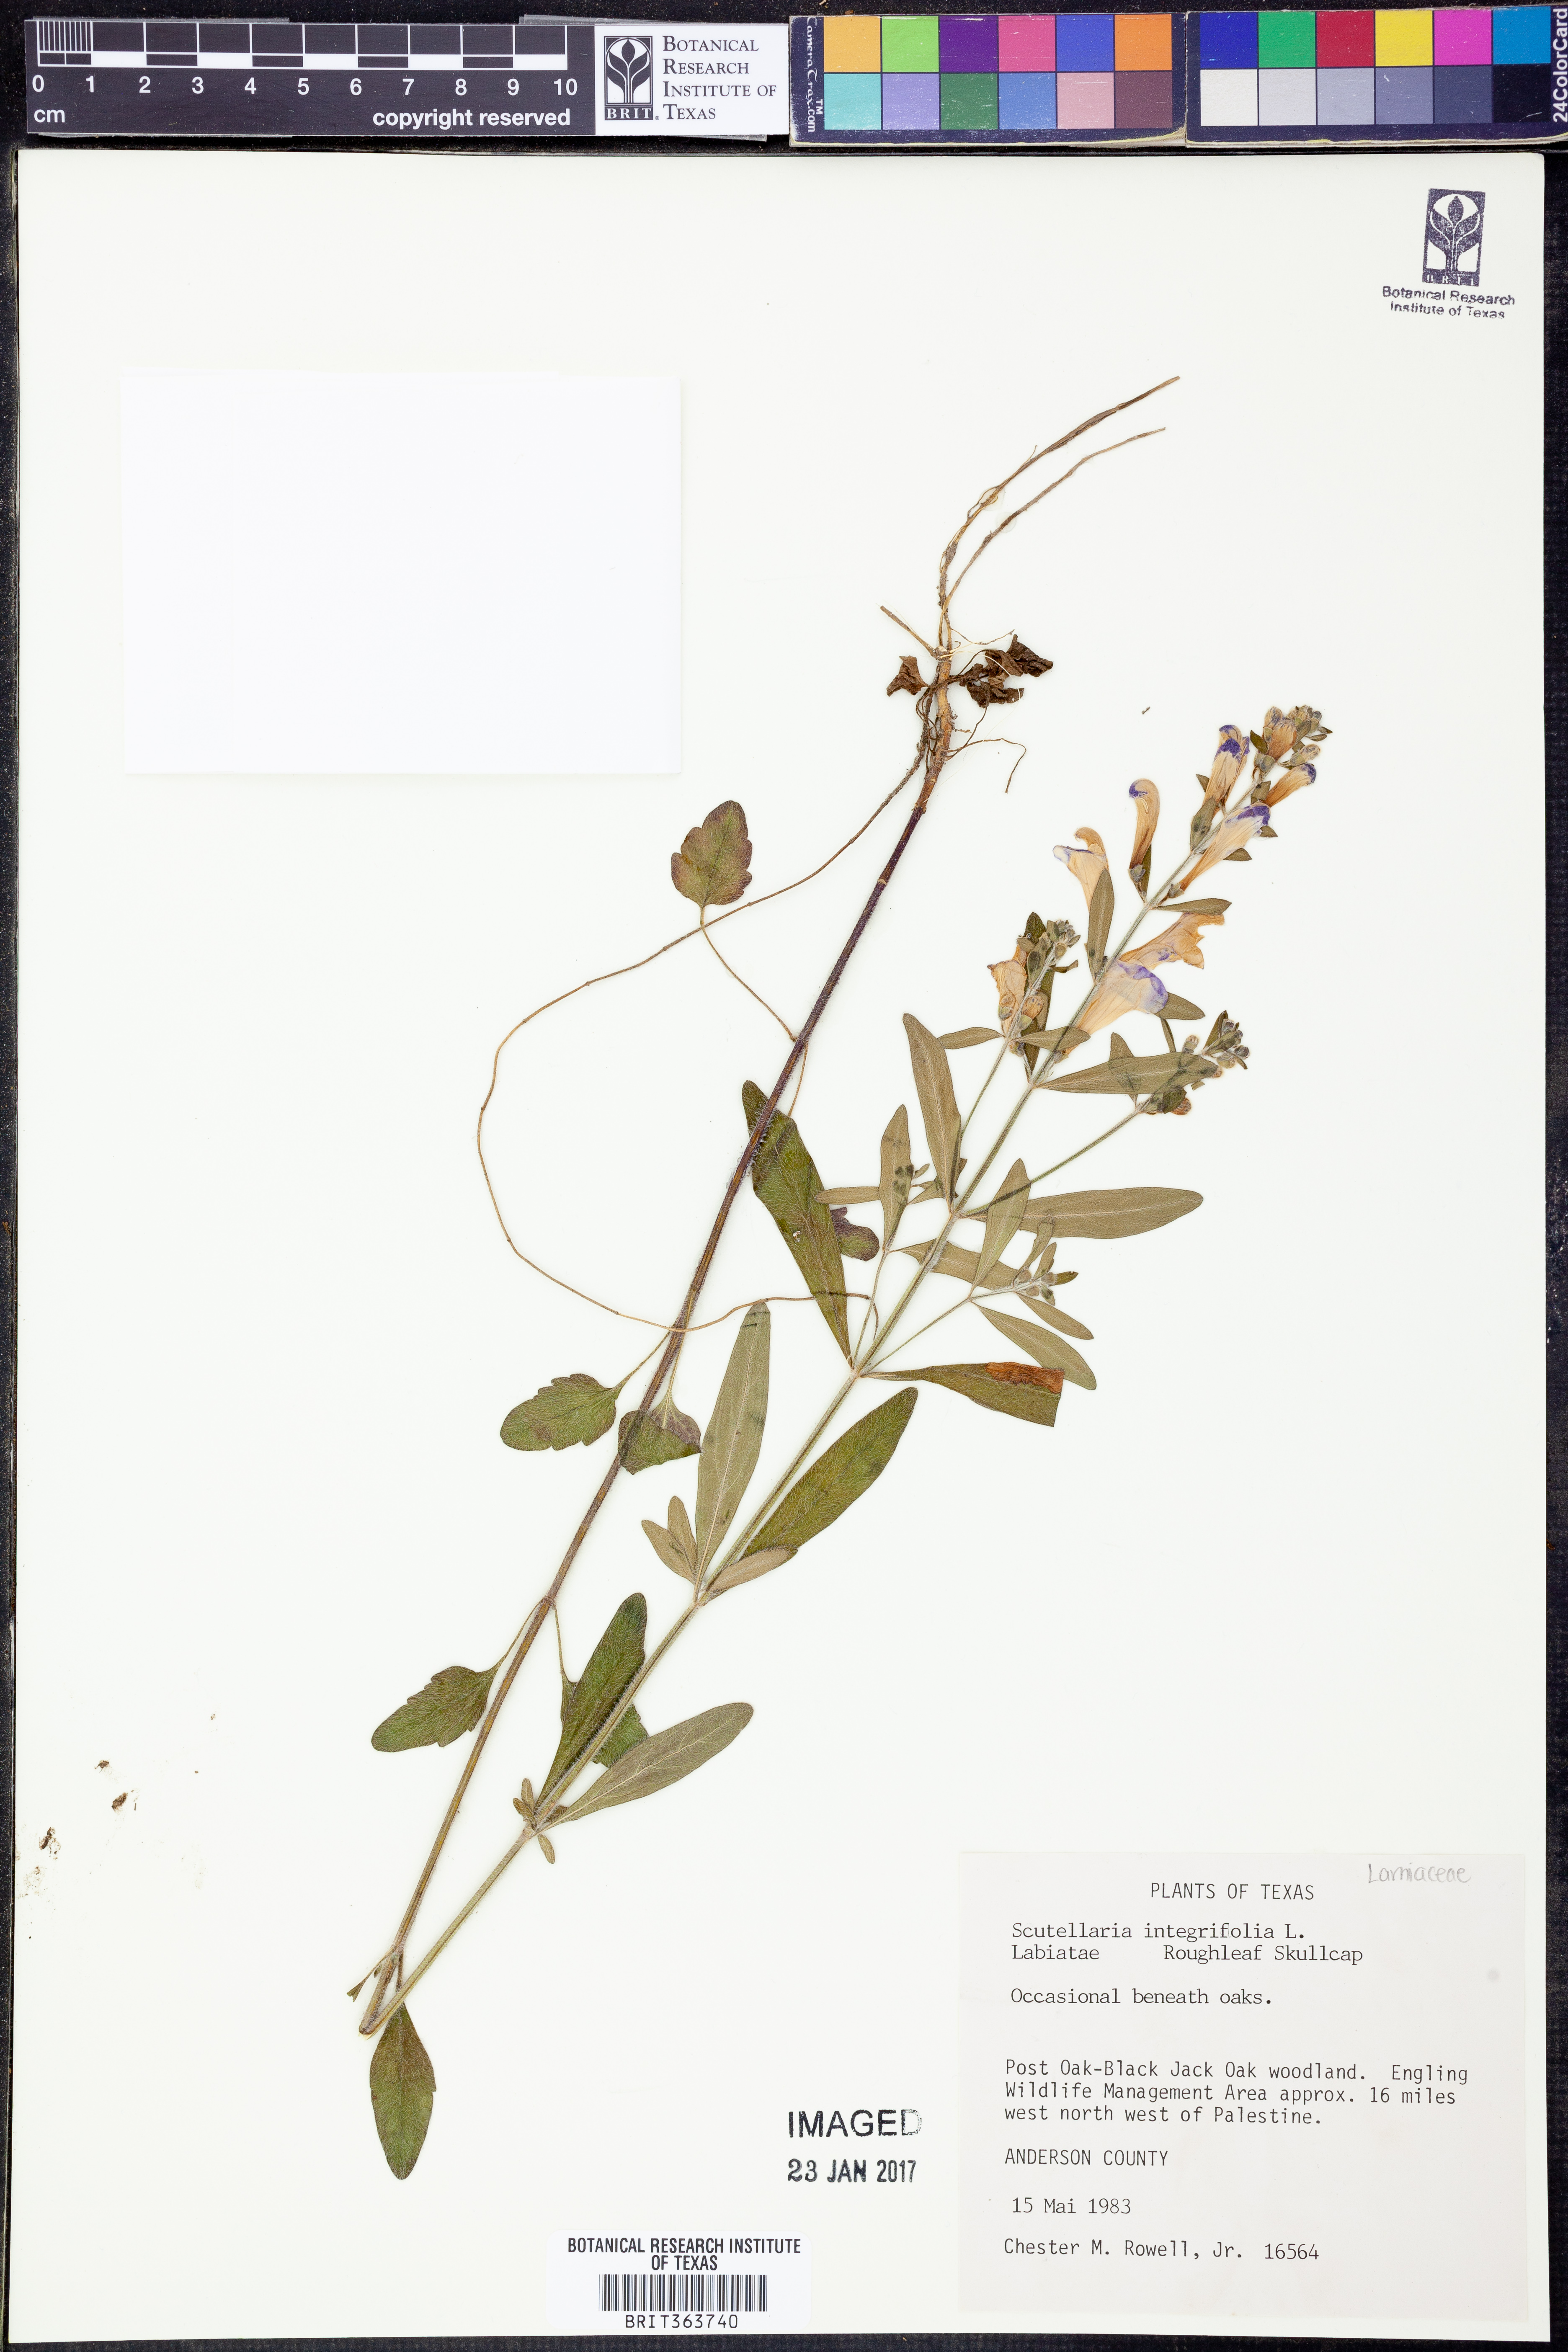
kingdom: Plantae
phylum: Tracheophyta
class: Magnoliopsida
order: Lamiales
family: Lamiaceae
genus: Scutellaria
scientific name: Scutellaria integrifolia
